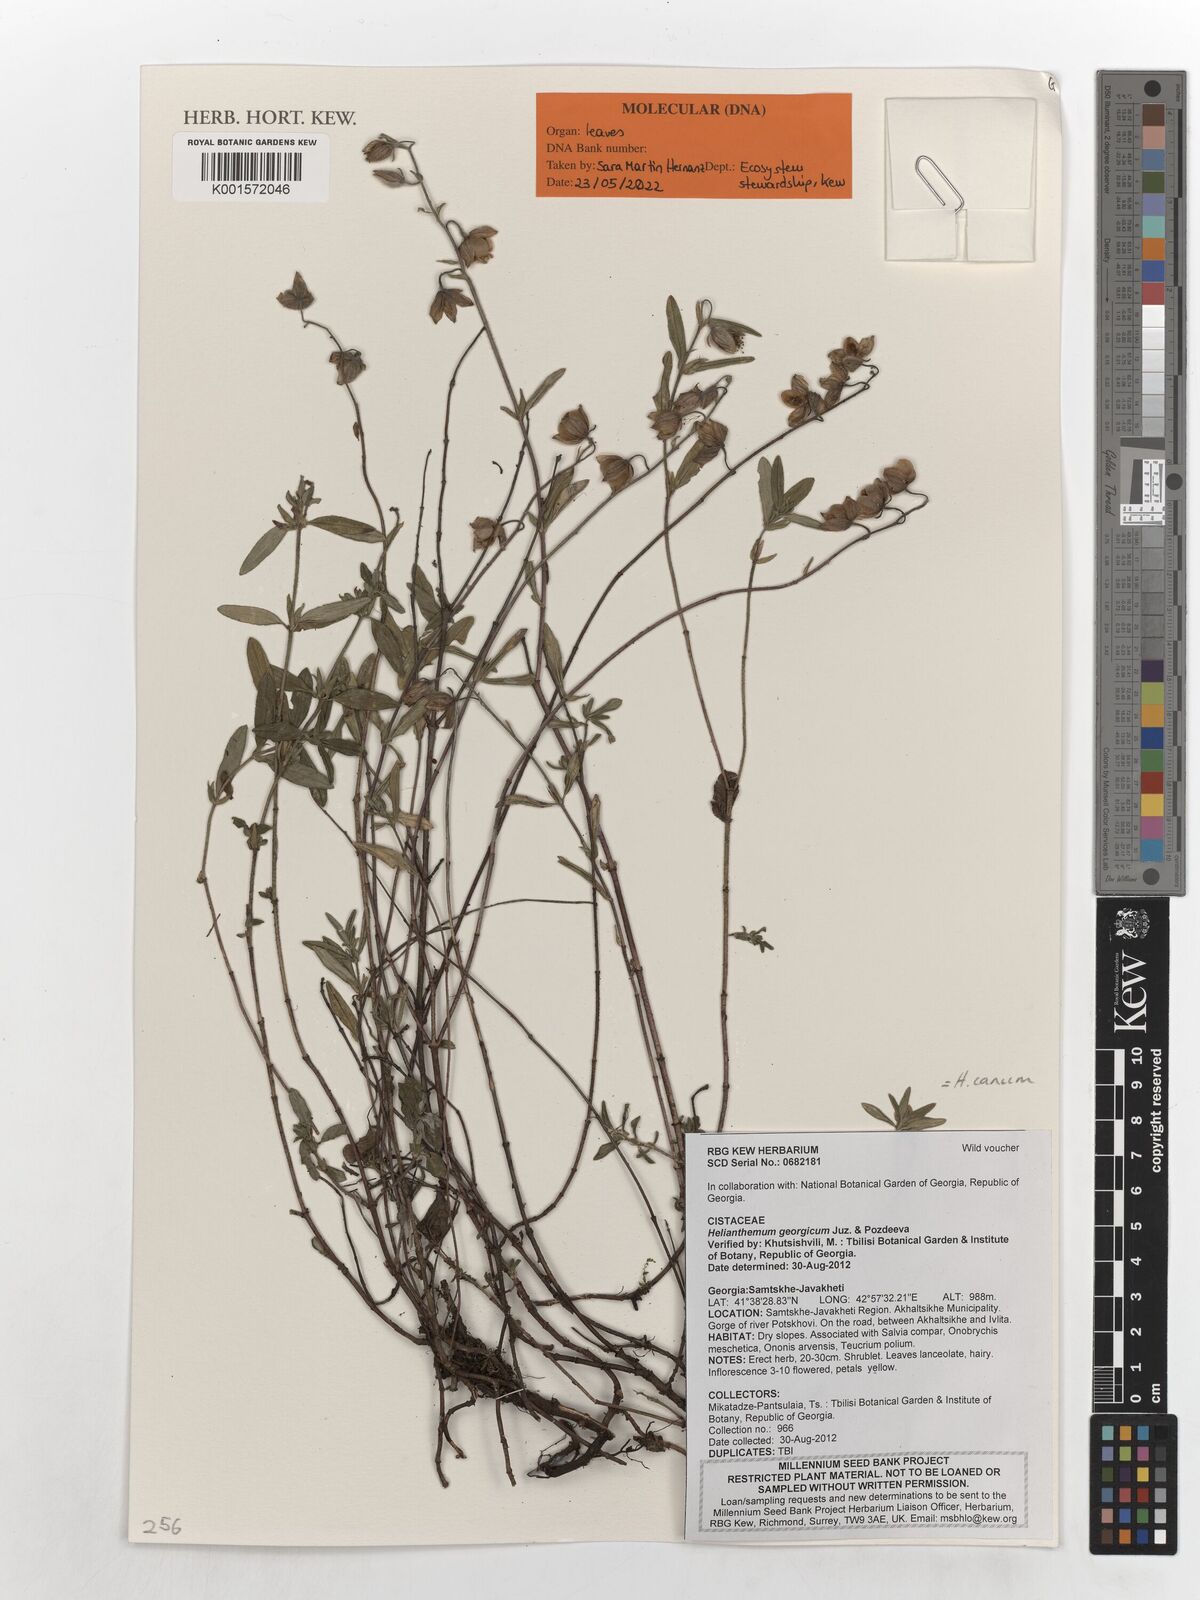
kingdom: Plantae
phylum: Tracheophyta
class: Magnoliopsida
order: Malvales
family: Cistaceae
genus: Helianthemum
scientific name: Helianthemum canum
